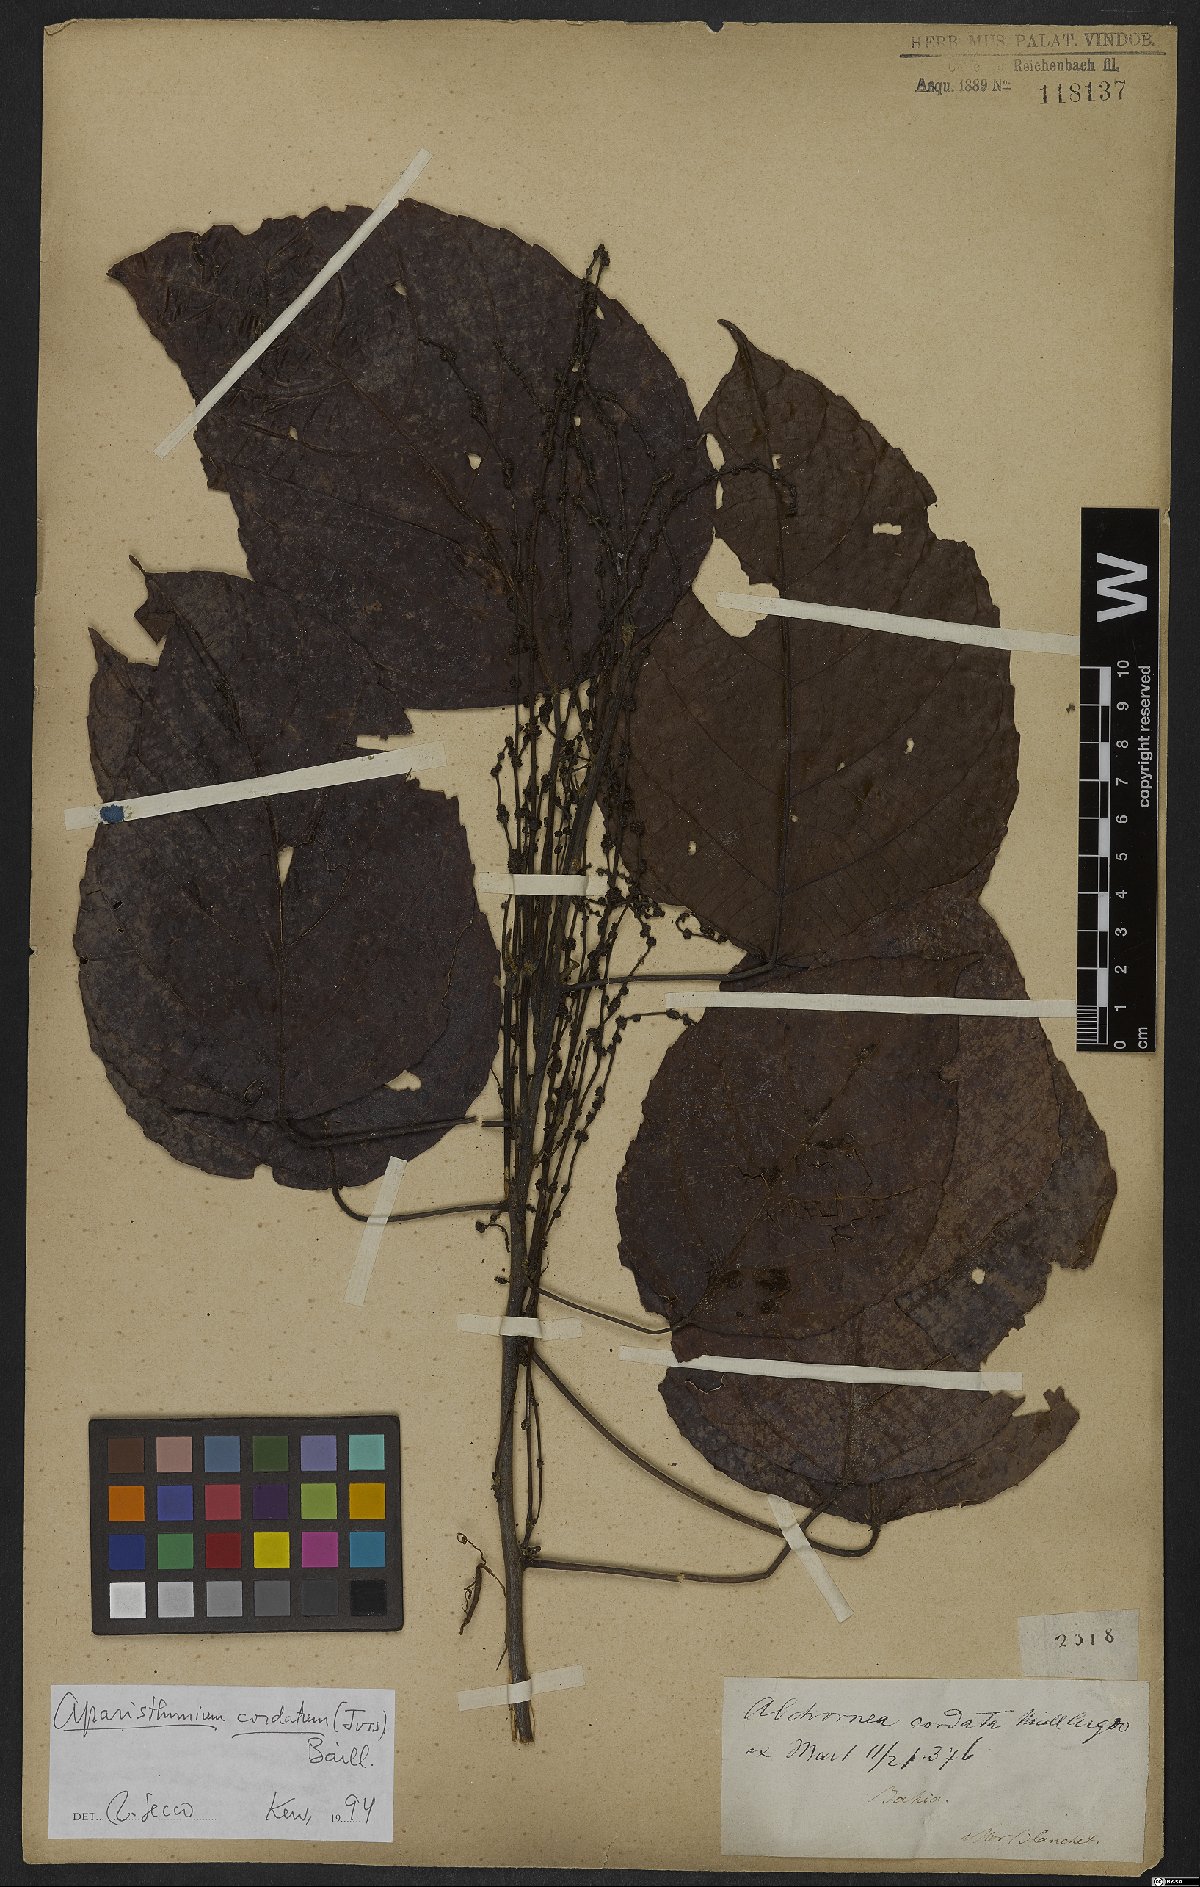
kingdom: Plantae
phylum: Tracheophyta
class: Magnoliopsida
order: Malpighiales
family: Euphorbiaceae
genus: Aparisthmium
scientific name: Aparisthmium cordatum
